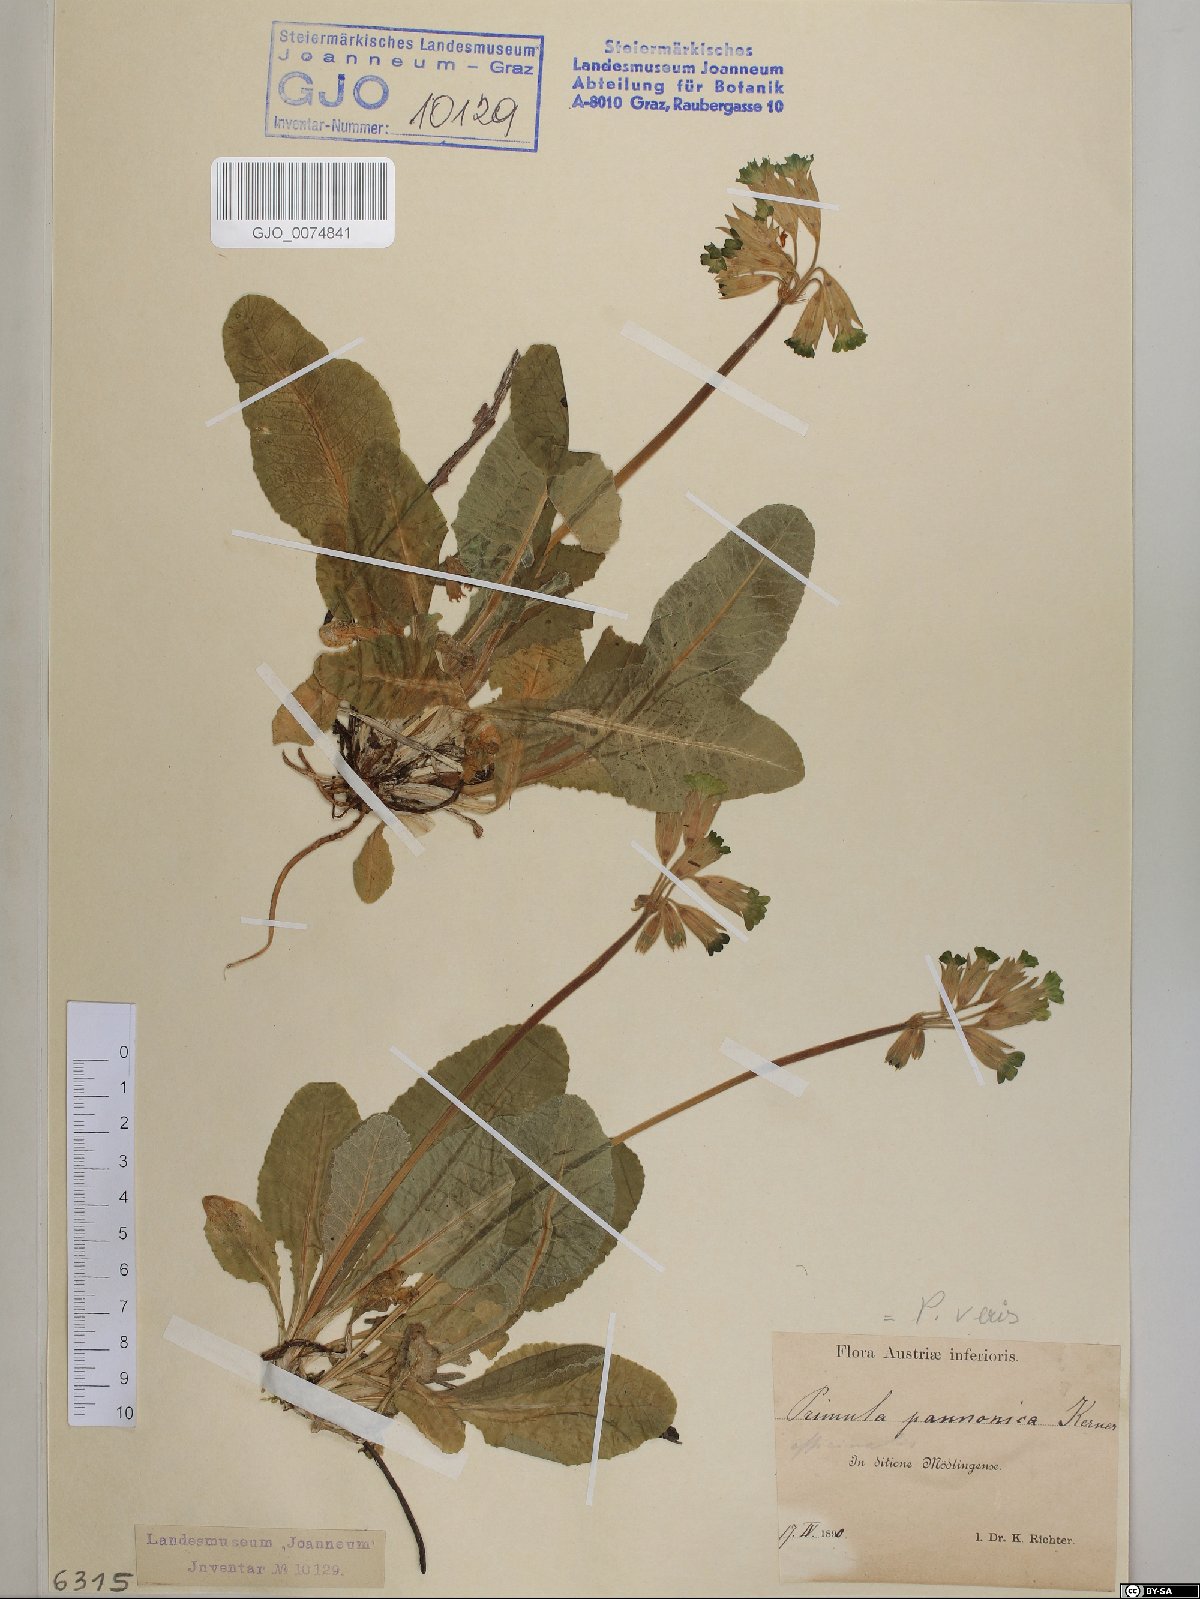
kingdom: Plantae
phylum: Tracheophyta
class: Magnoliopsida
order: Ericales
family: Primulaceae
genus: Primula
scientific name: Primula veris
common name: Cowslip
